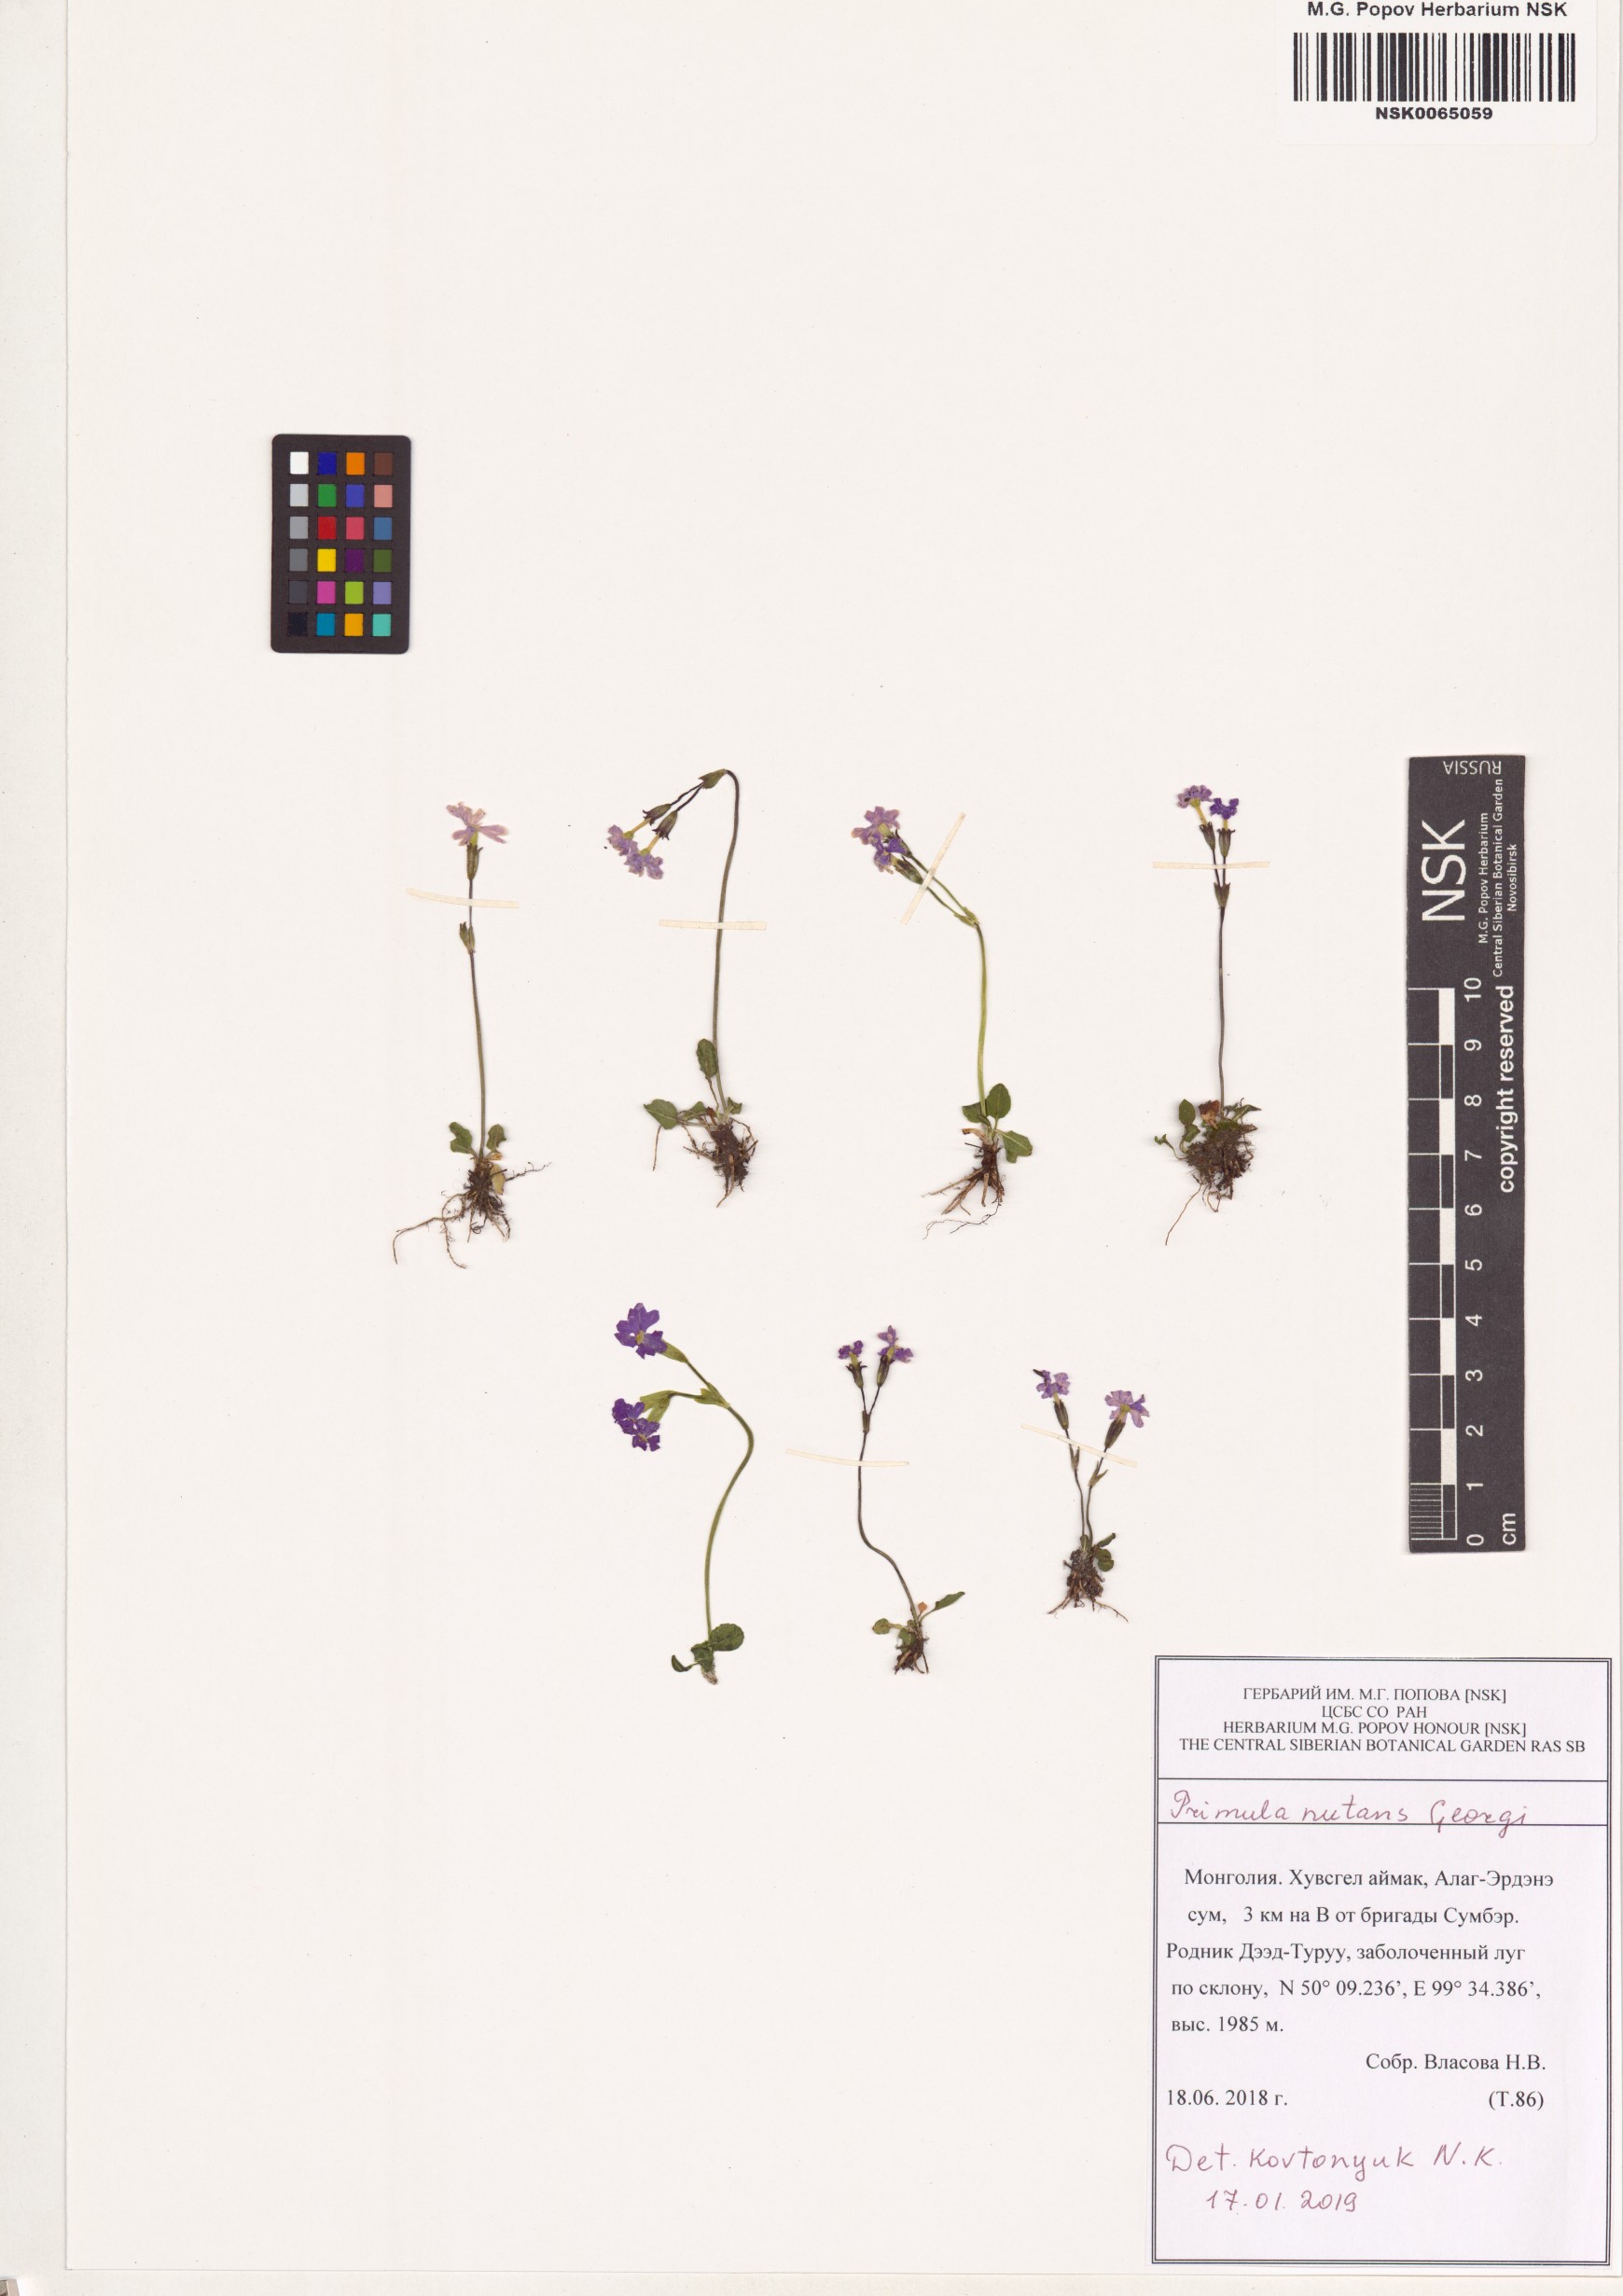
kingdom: Plantae
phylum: Tracheophyta
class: Magnoliopsida
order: Ericales
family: Primulaceae
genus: Primula
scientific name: Primula nutans
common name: Siberian primrose
